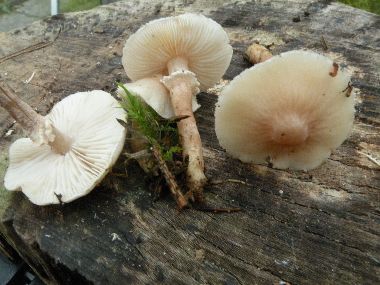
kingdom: Fungi
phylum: Basidiomycota
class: Agaricomycetes
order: Agaricales
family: Tricholomataceae
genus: Cystoderma
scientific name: Cystoderma carcharias
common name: rødgrå grynhat
